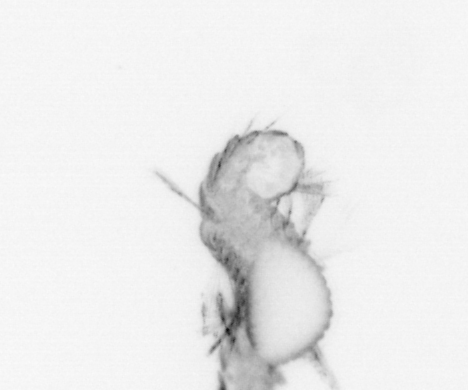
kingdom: Animalia
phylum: Annelida
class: Polychaeta
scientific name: Polychaeta
